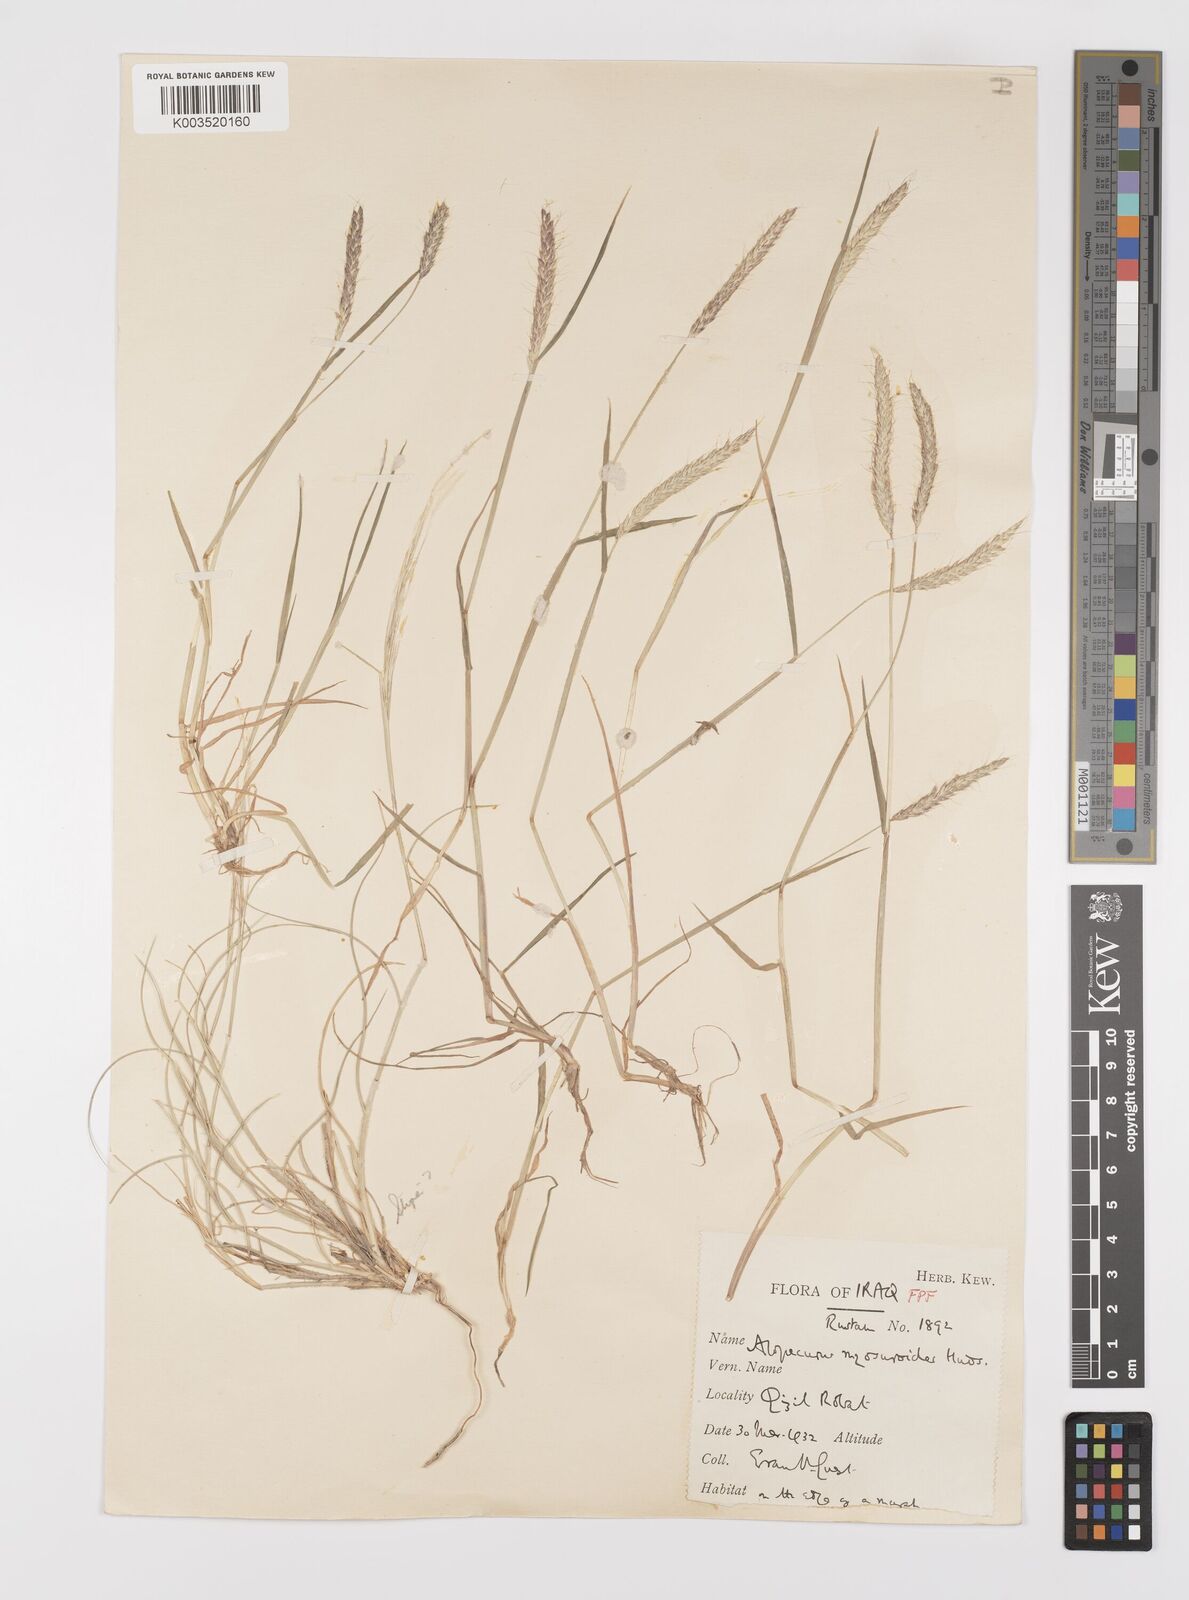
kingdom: Plantae
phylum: Tracheophyta
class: Liliopsida
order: Poales
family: Poaceae
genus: Alopecurus
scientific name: Alopecurus myosuroides
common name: Black-grass
